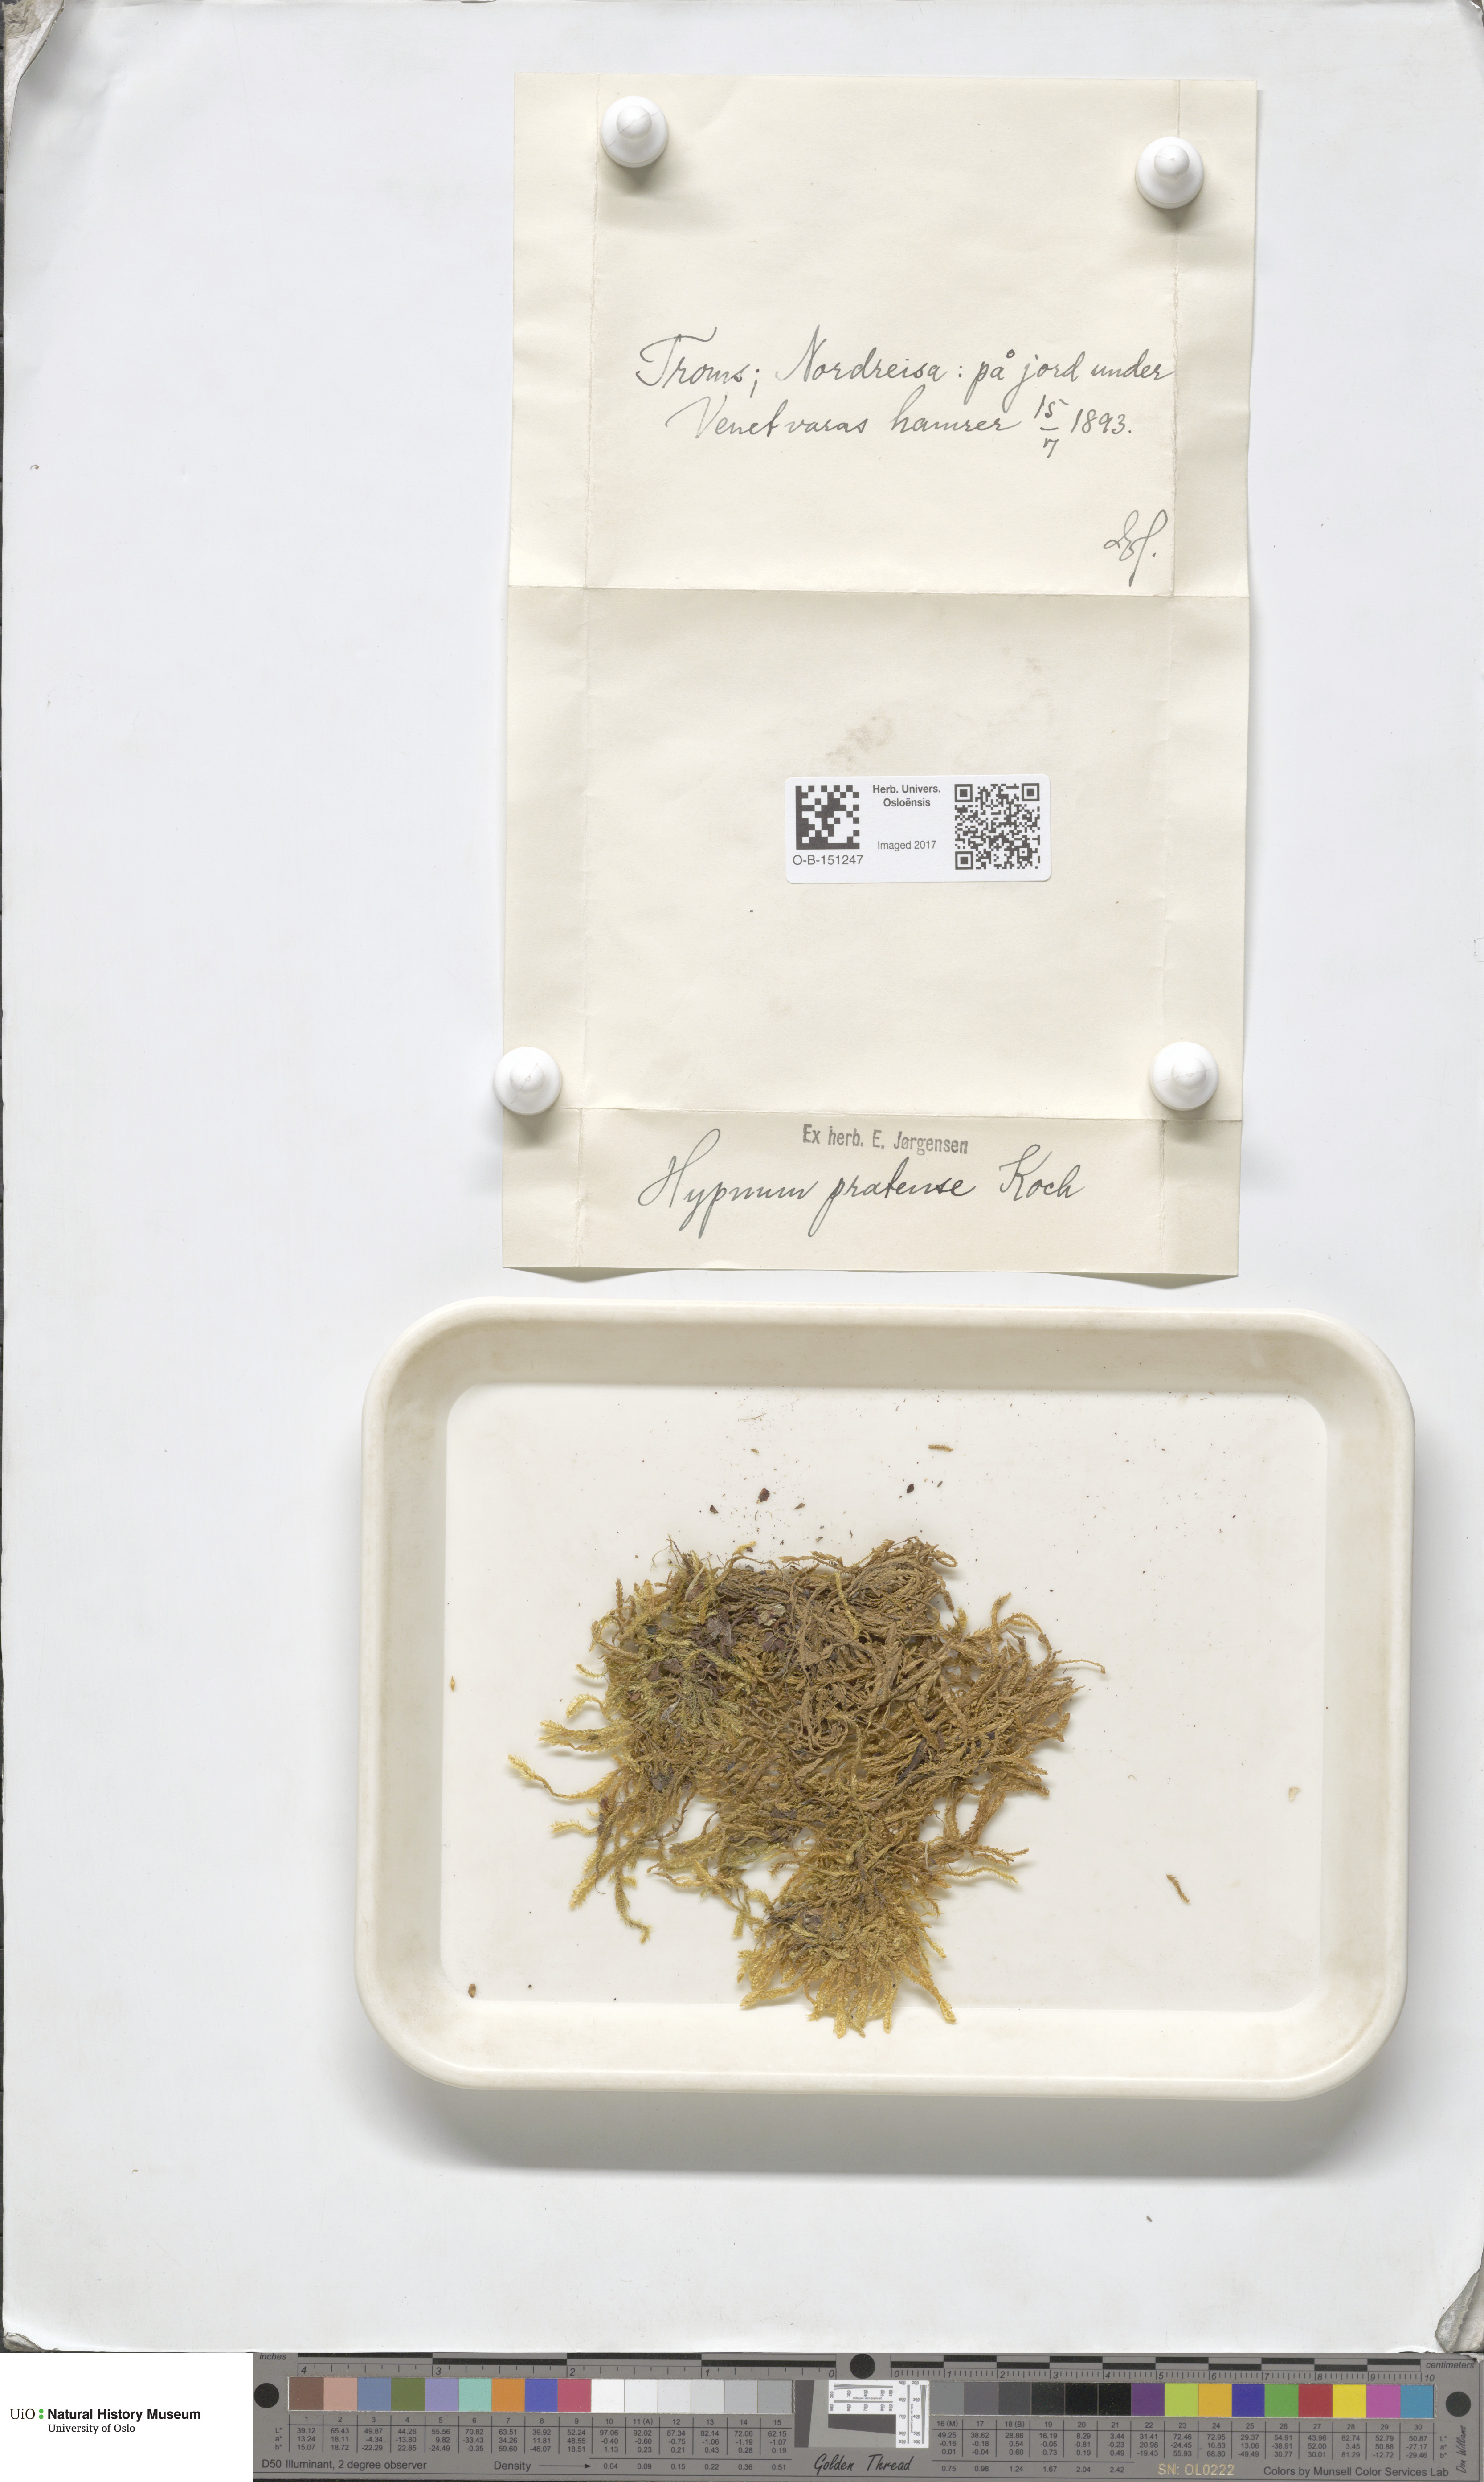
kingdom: Plantae
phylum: Bryophyta
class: Bryopsida
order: Hypnales
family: Stereodontaceae
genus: Stereodon
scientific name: Stereodon pratensis
